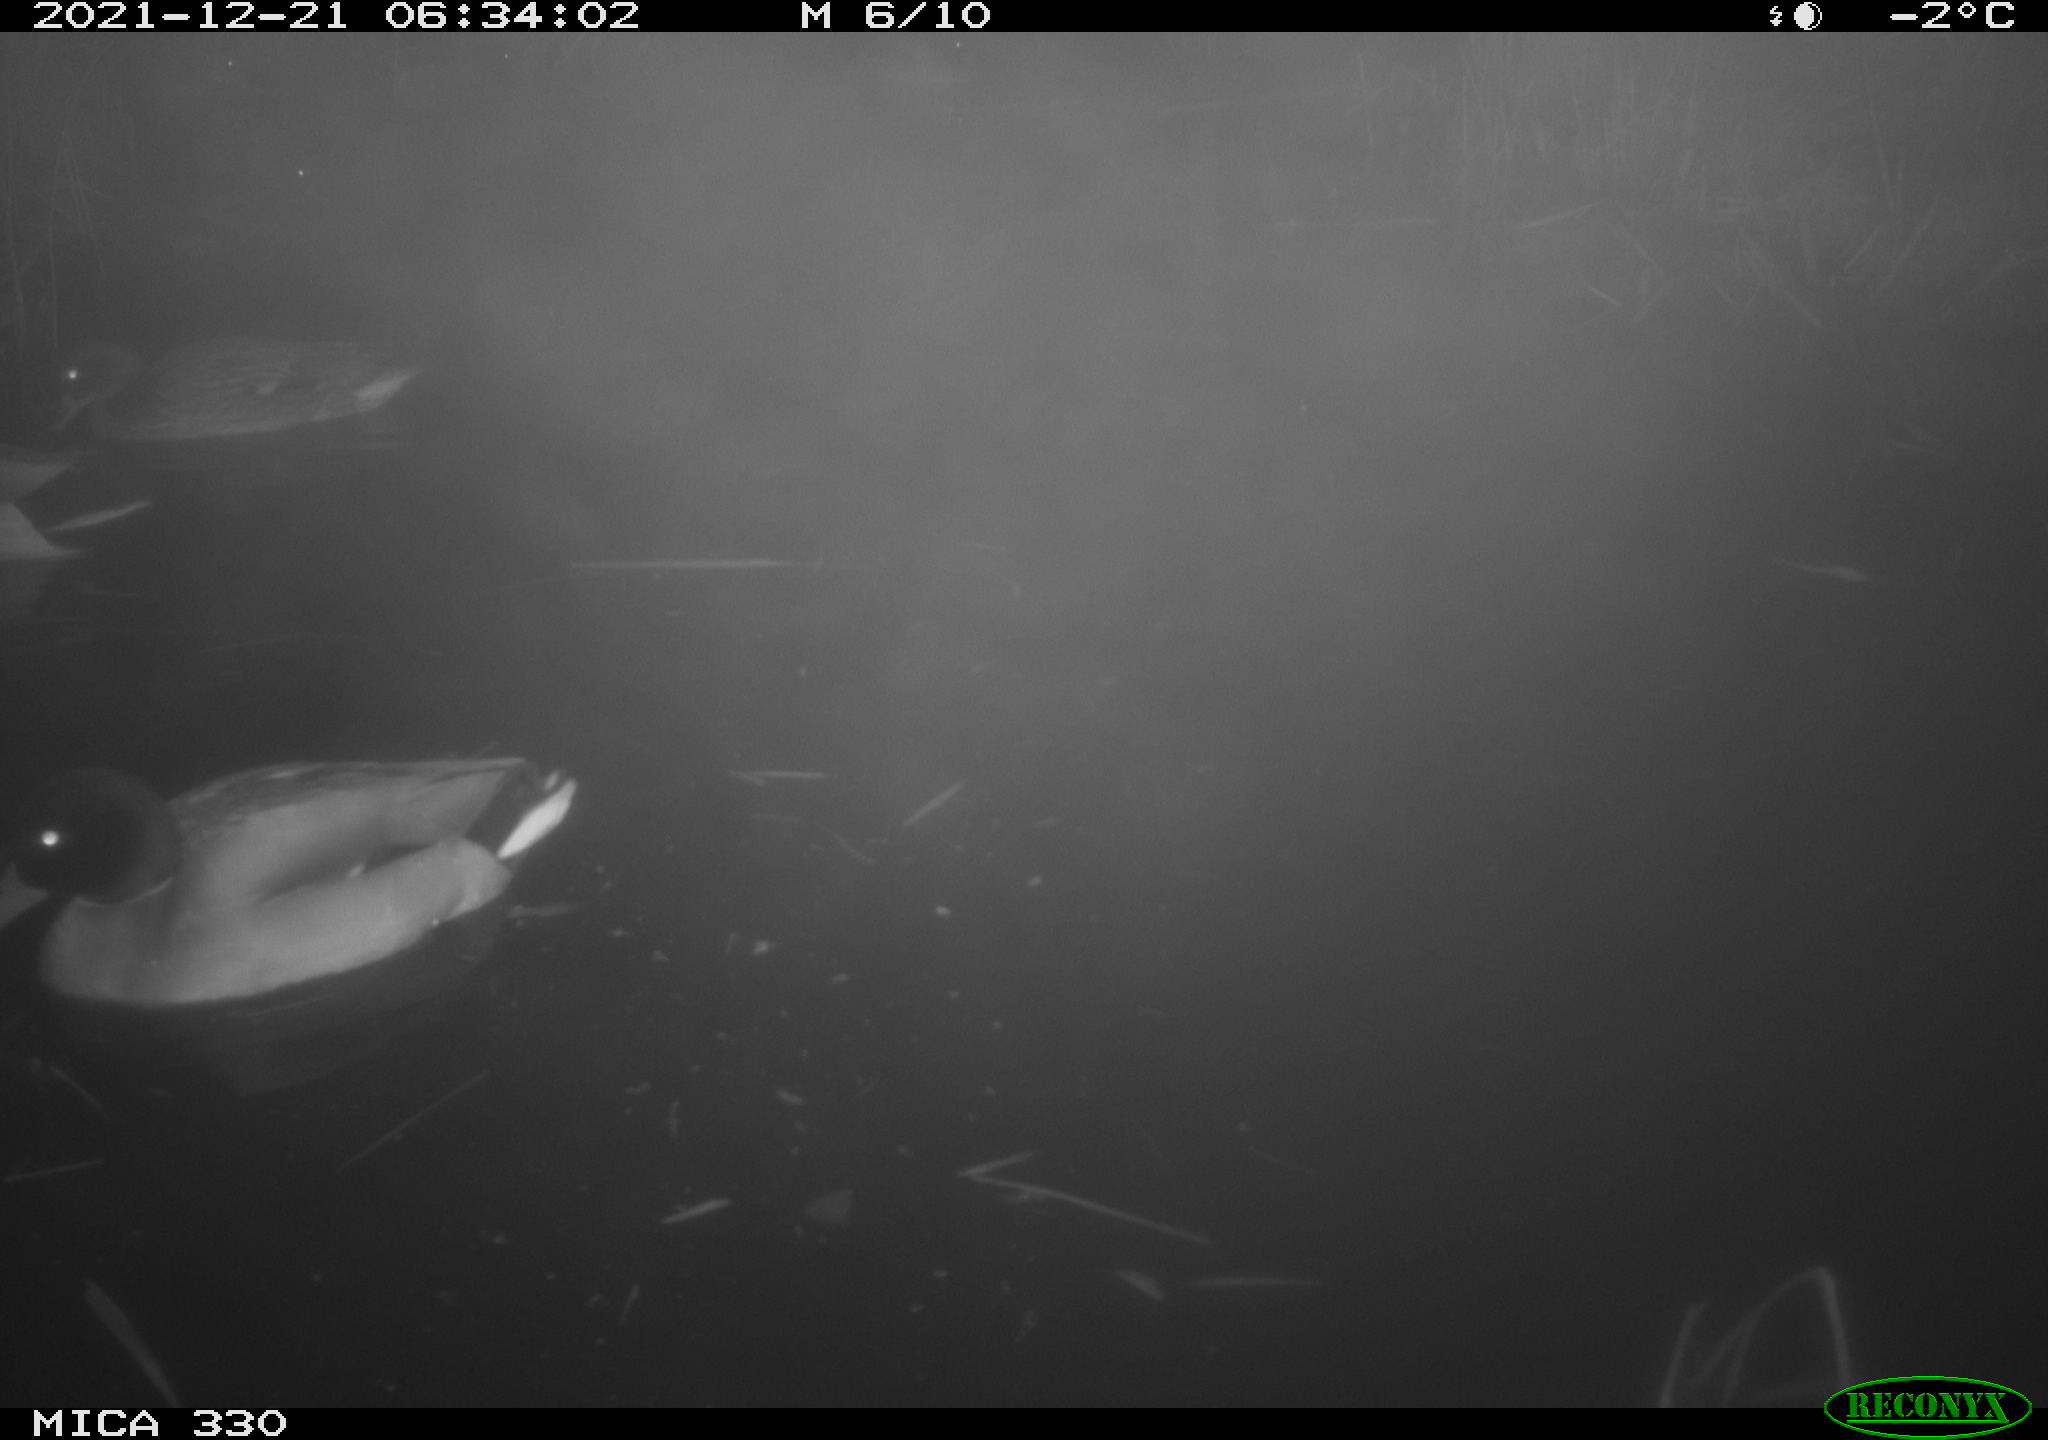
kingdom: Animalia
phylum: Chordata
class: Aves
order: Anseriformes
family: Anatidae
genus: Anas
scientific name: Anas platyrhynchos
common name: Mallard
